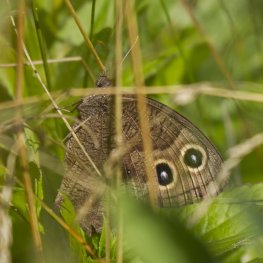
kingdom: Animalia
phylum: Arthropoda
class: Insecta
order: Lepidoptera
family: Nymphalidae
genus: Cercyonis
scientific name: Cercyonis pegala
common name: Common Wood-Nymph
